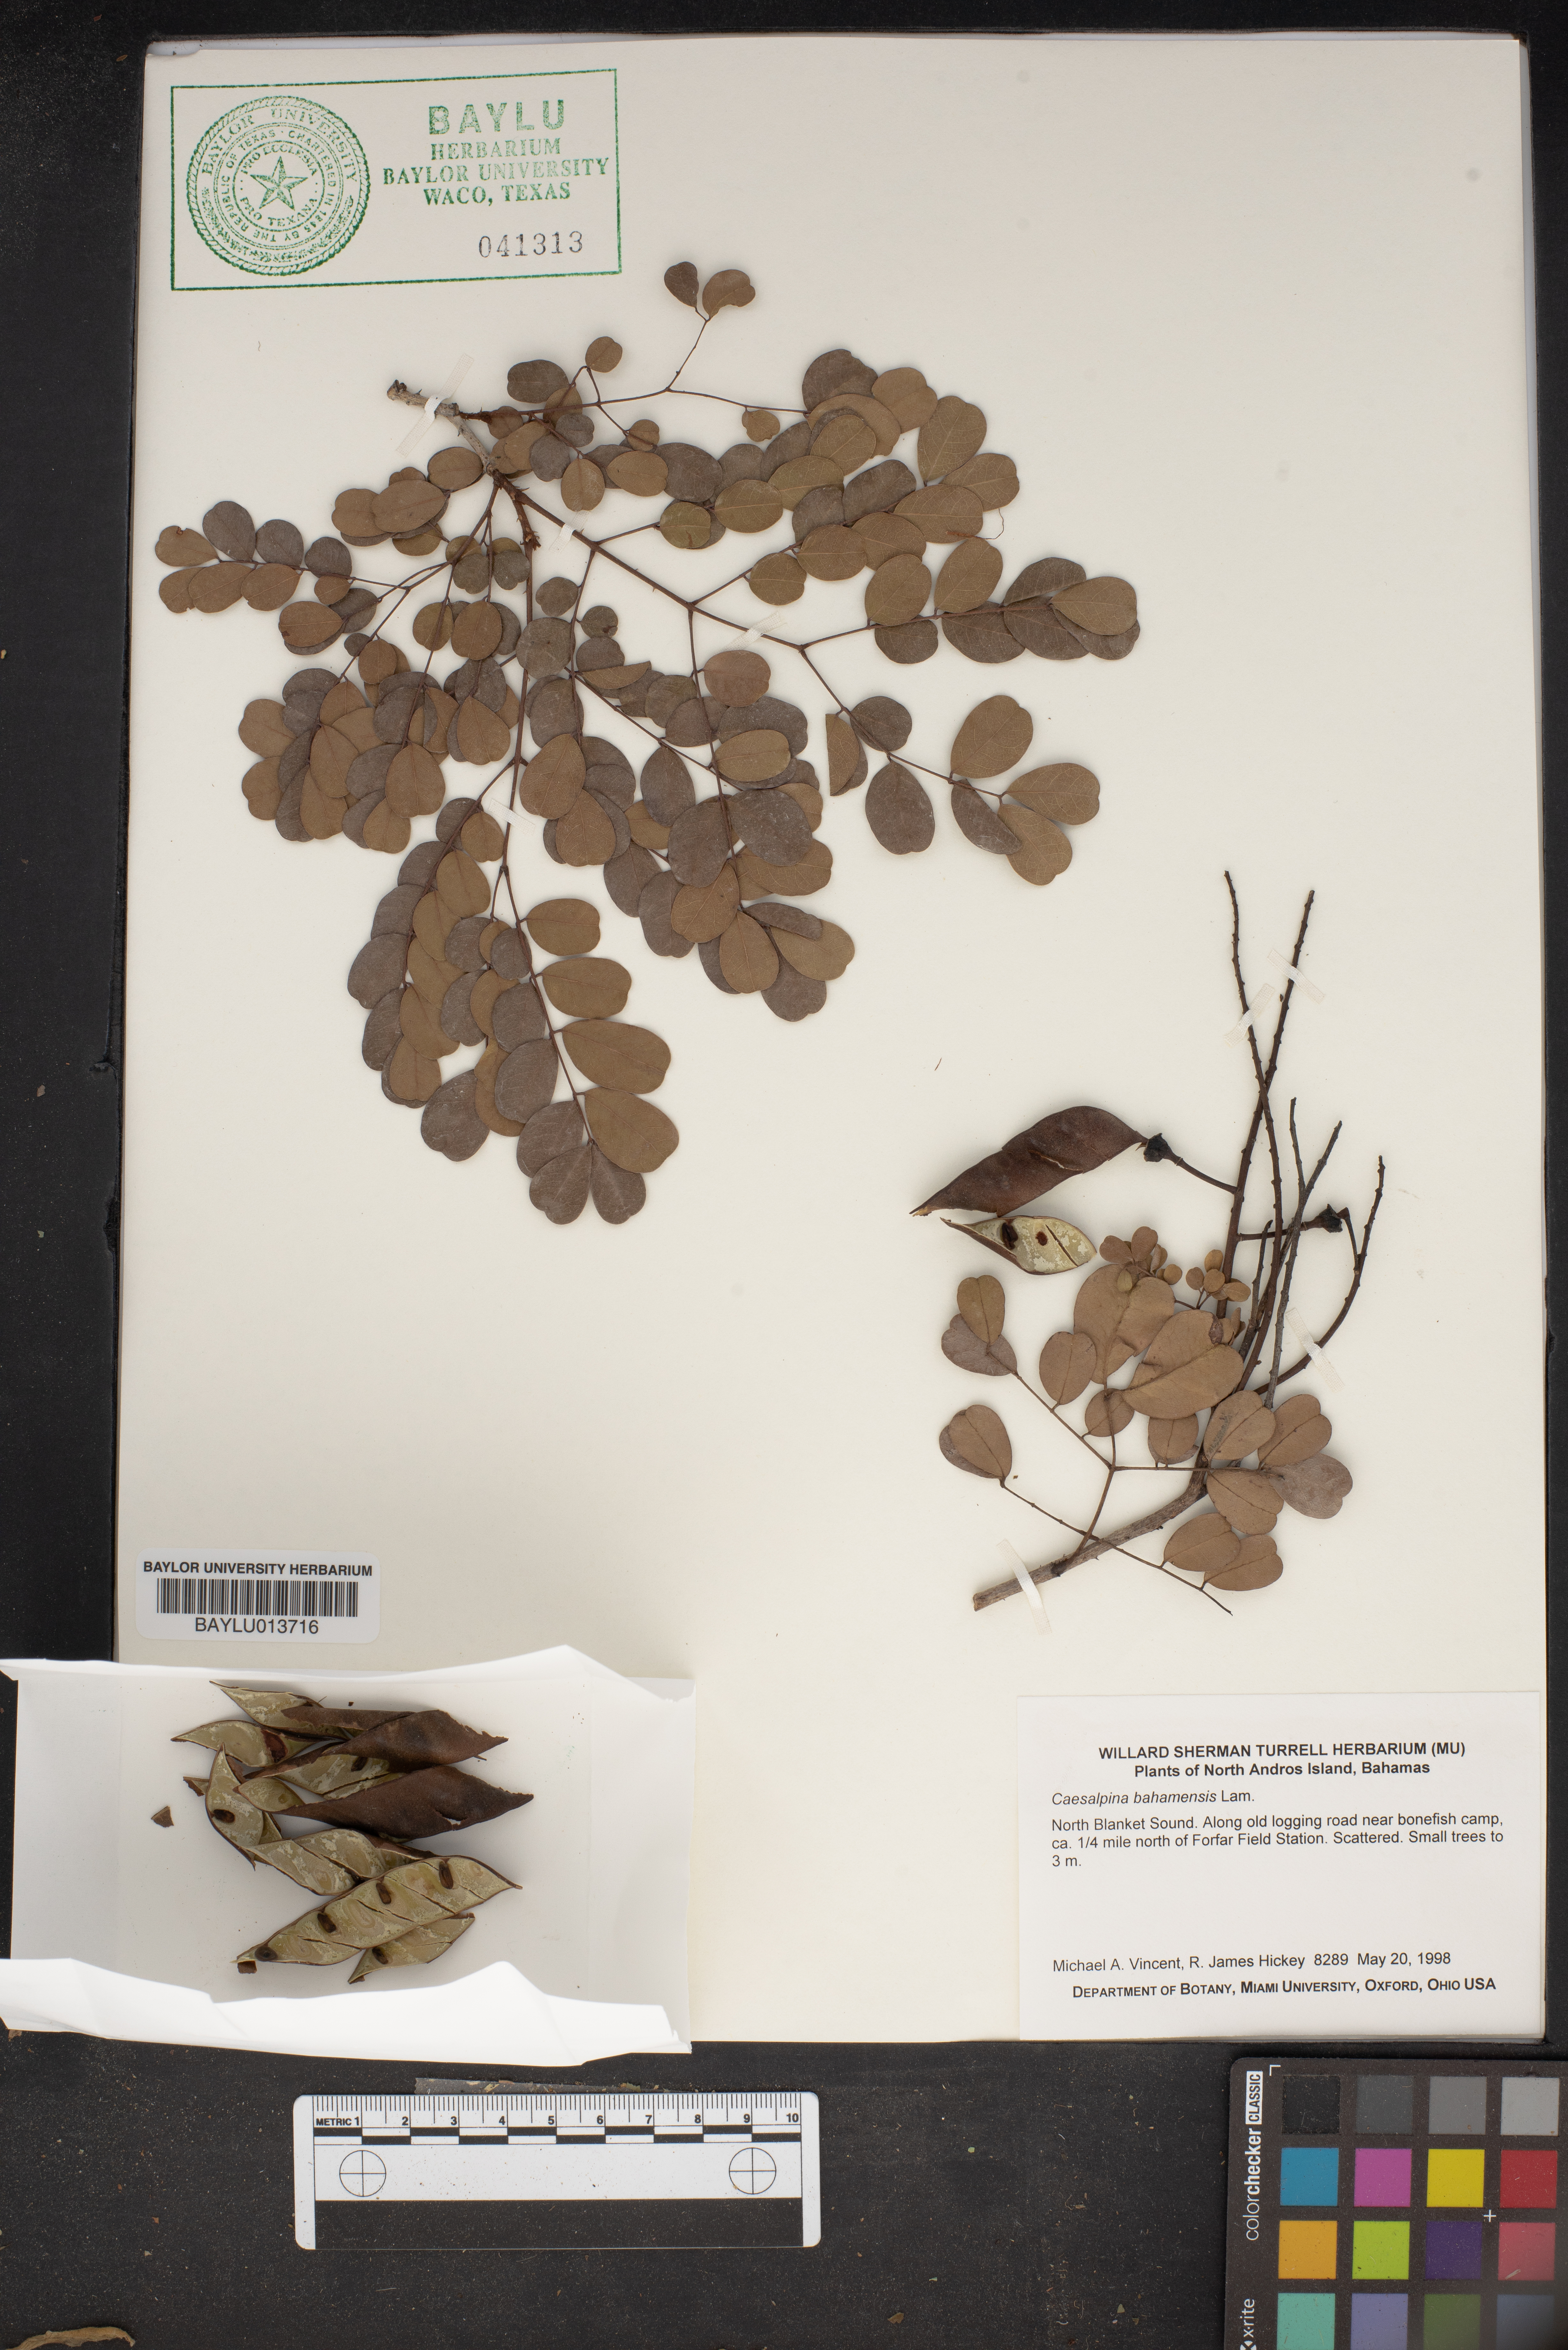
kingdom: Plantae
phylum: Tracheophyta
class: Magnoliopsida
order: Fabales
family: Fabaceae
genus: Caesalpinia
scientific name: Caesalpinia bahamensis
